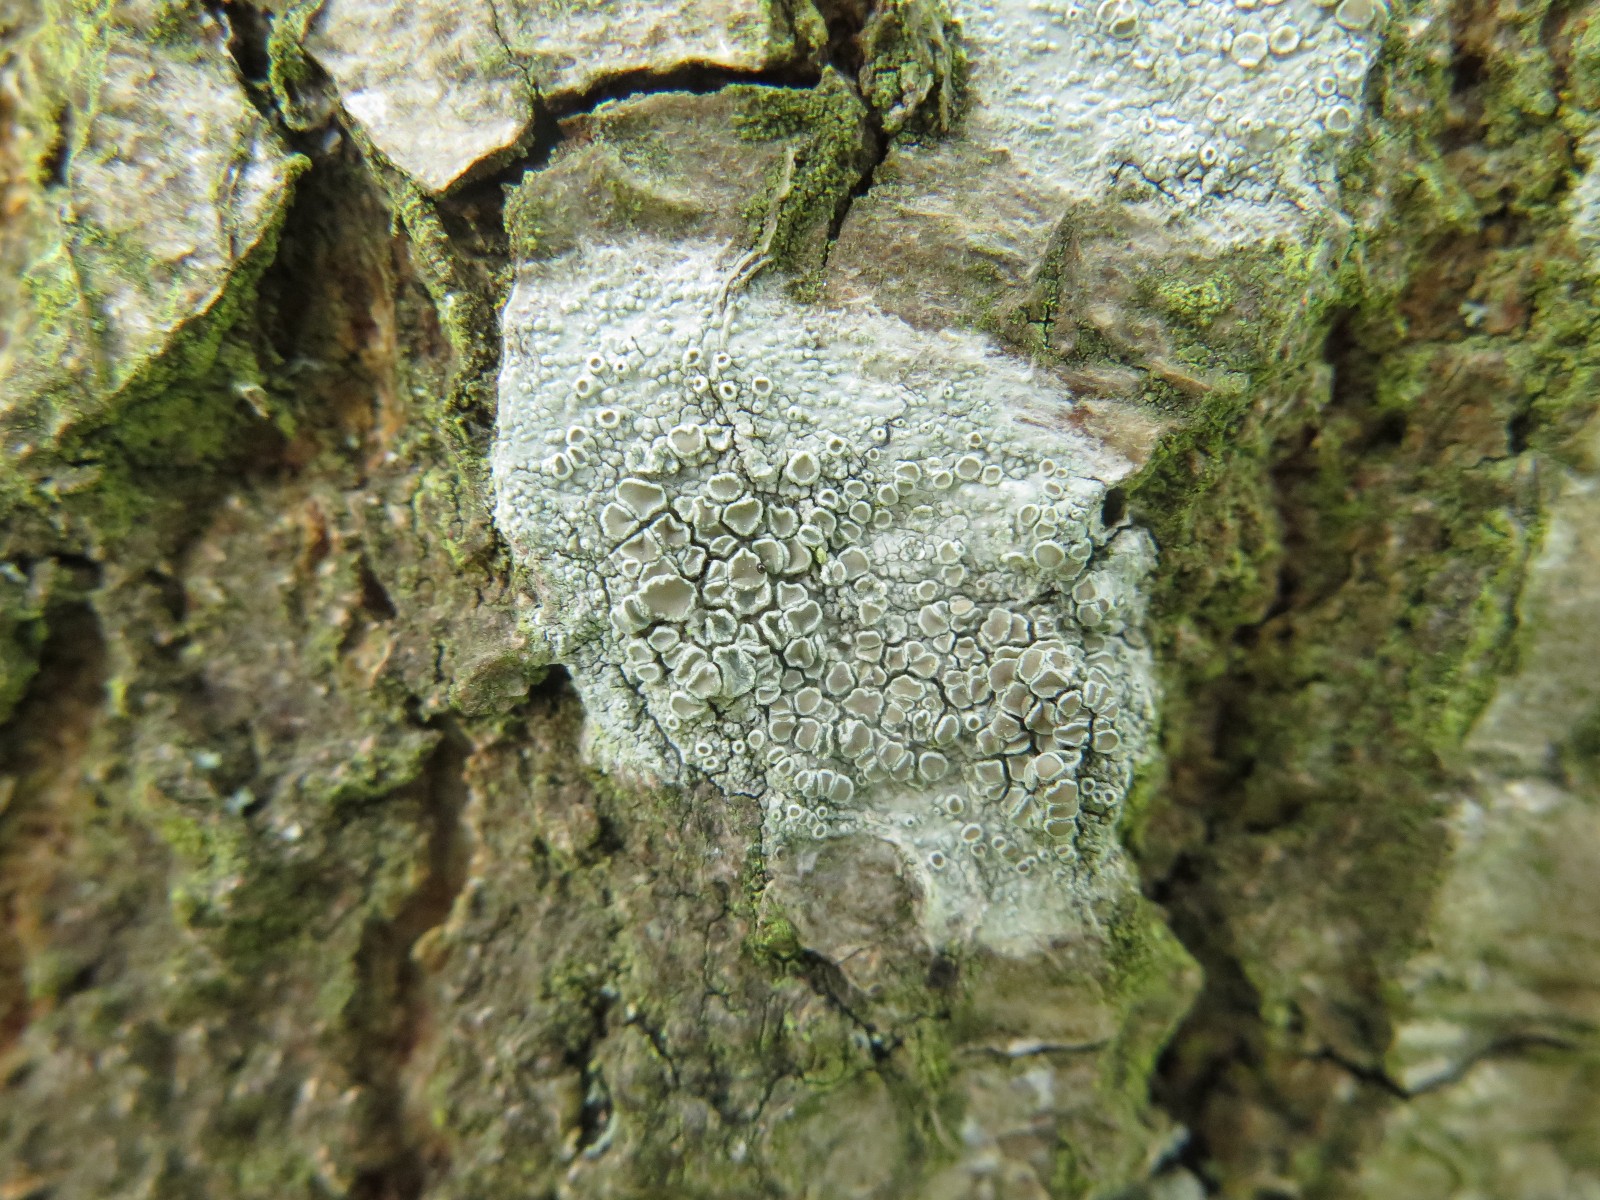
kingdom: Fungi
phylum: Ascomycota
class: Lecanoromycetes
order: Lecanorales
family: Lecanoraceae
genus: Lecanora
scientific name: Lecanora chlarotera
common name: brun kantskivelav
